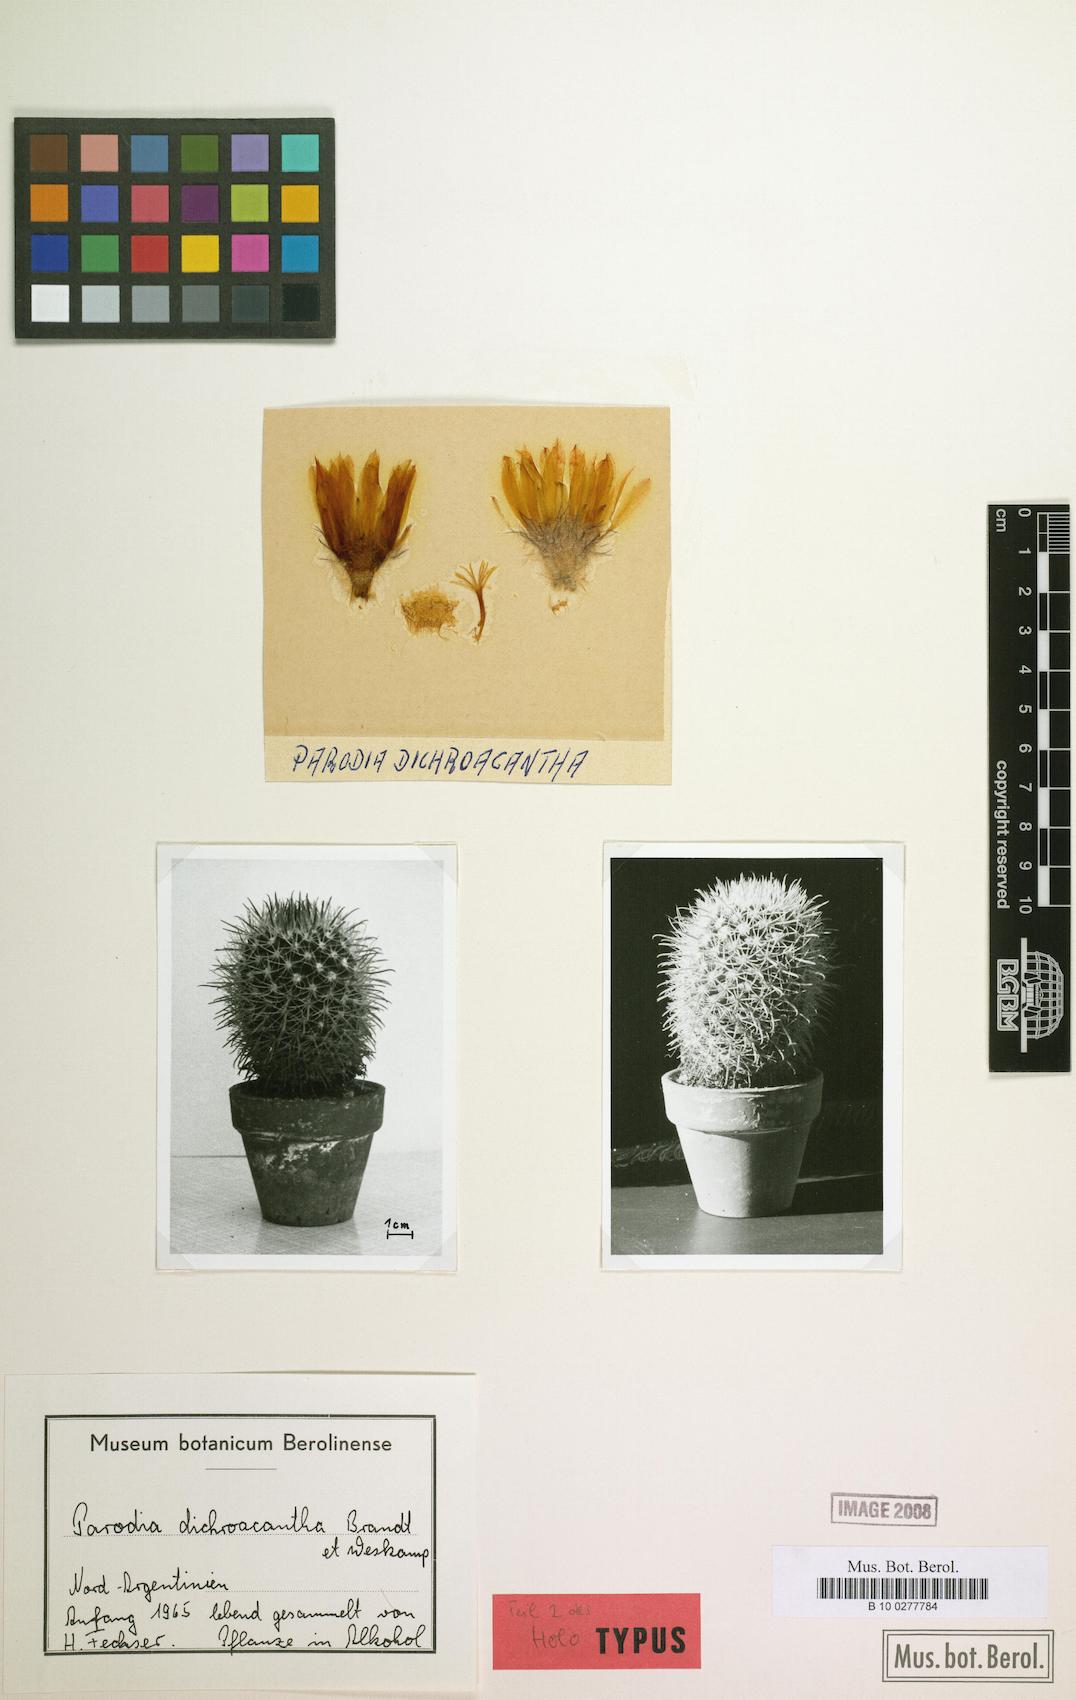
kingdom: Plantae
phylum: Tracheophyta
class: Magnoliopsida
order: Caryophyllales
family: Cactaceae
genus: Parodia
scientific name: Parodia horrida
